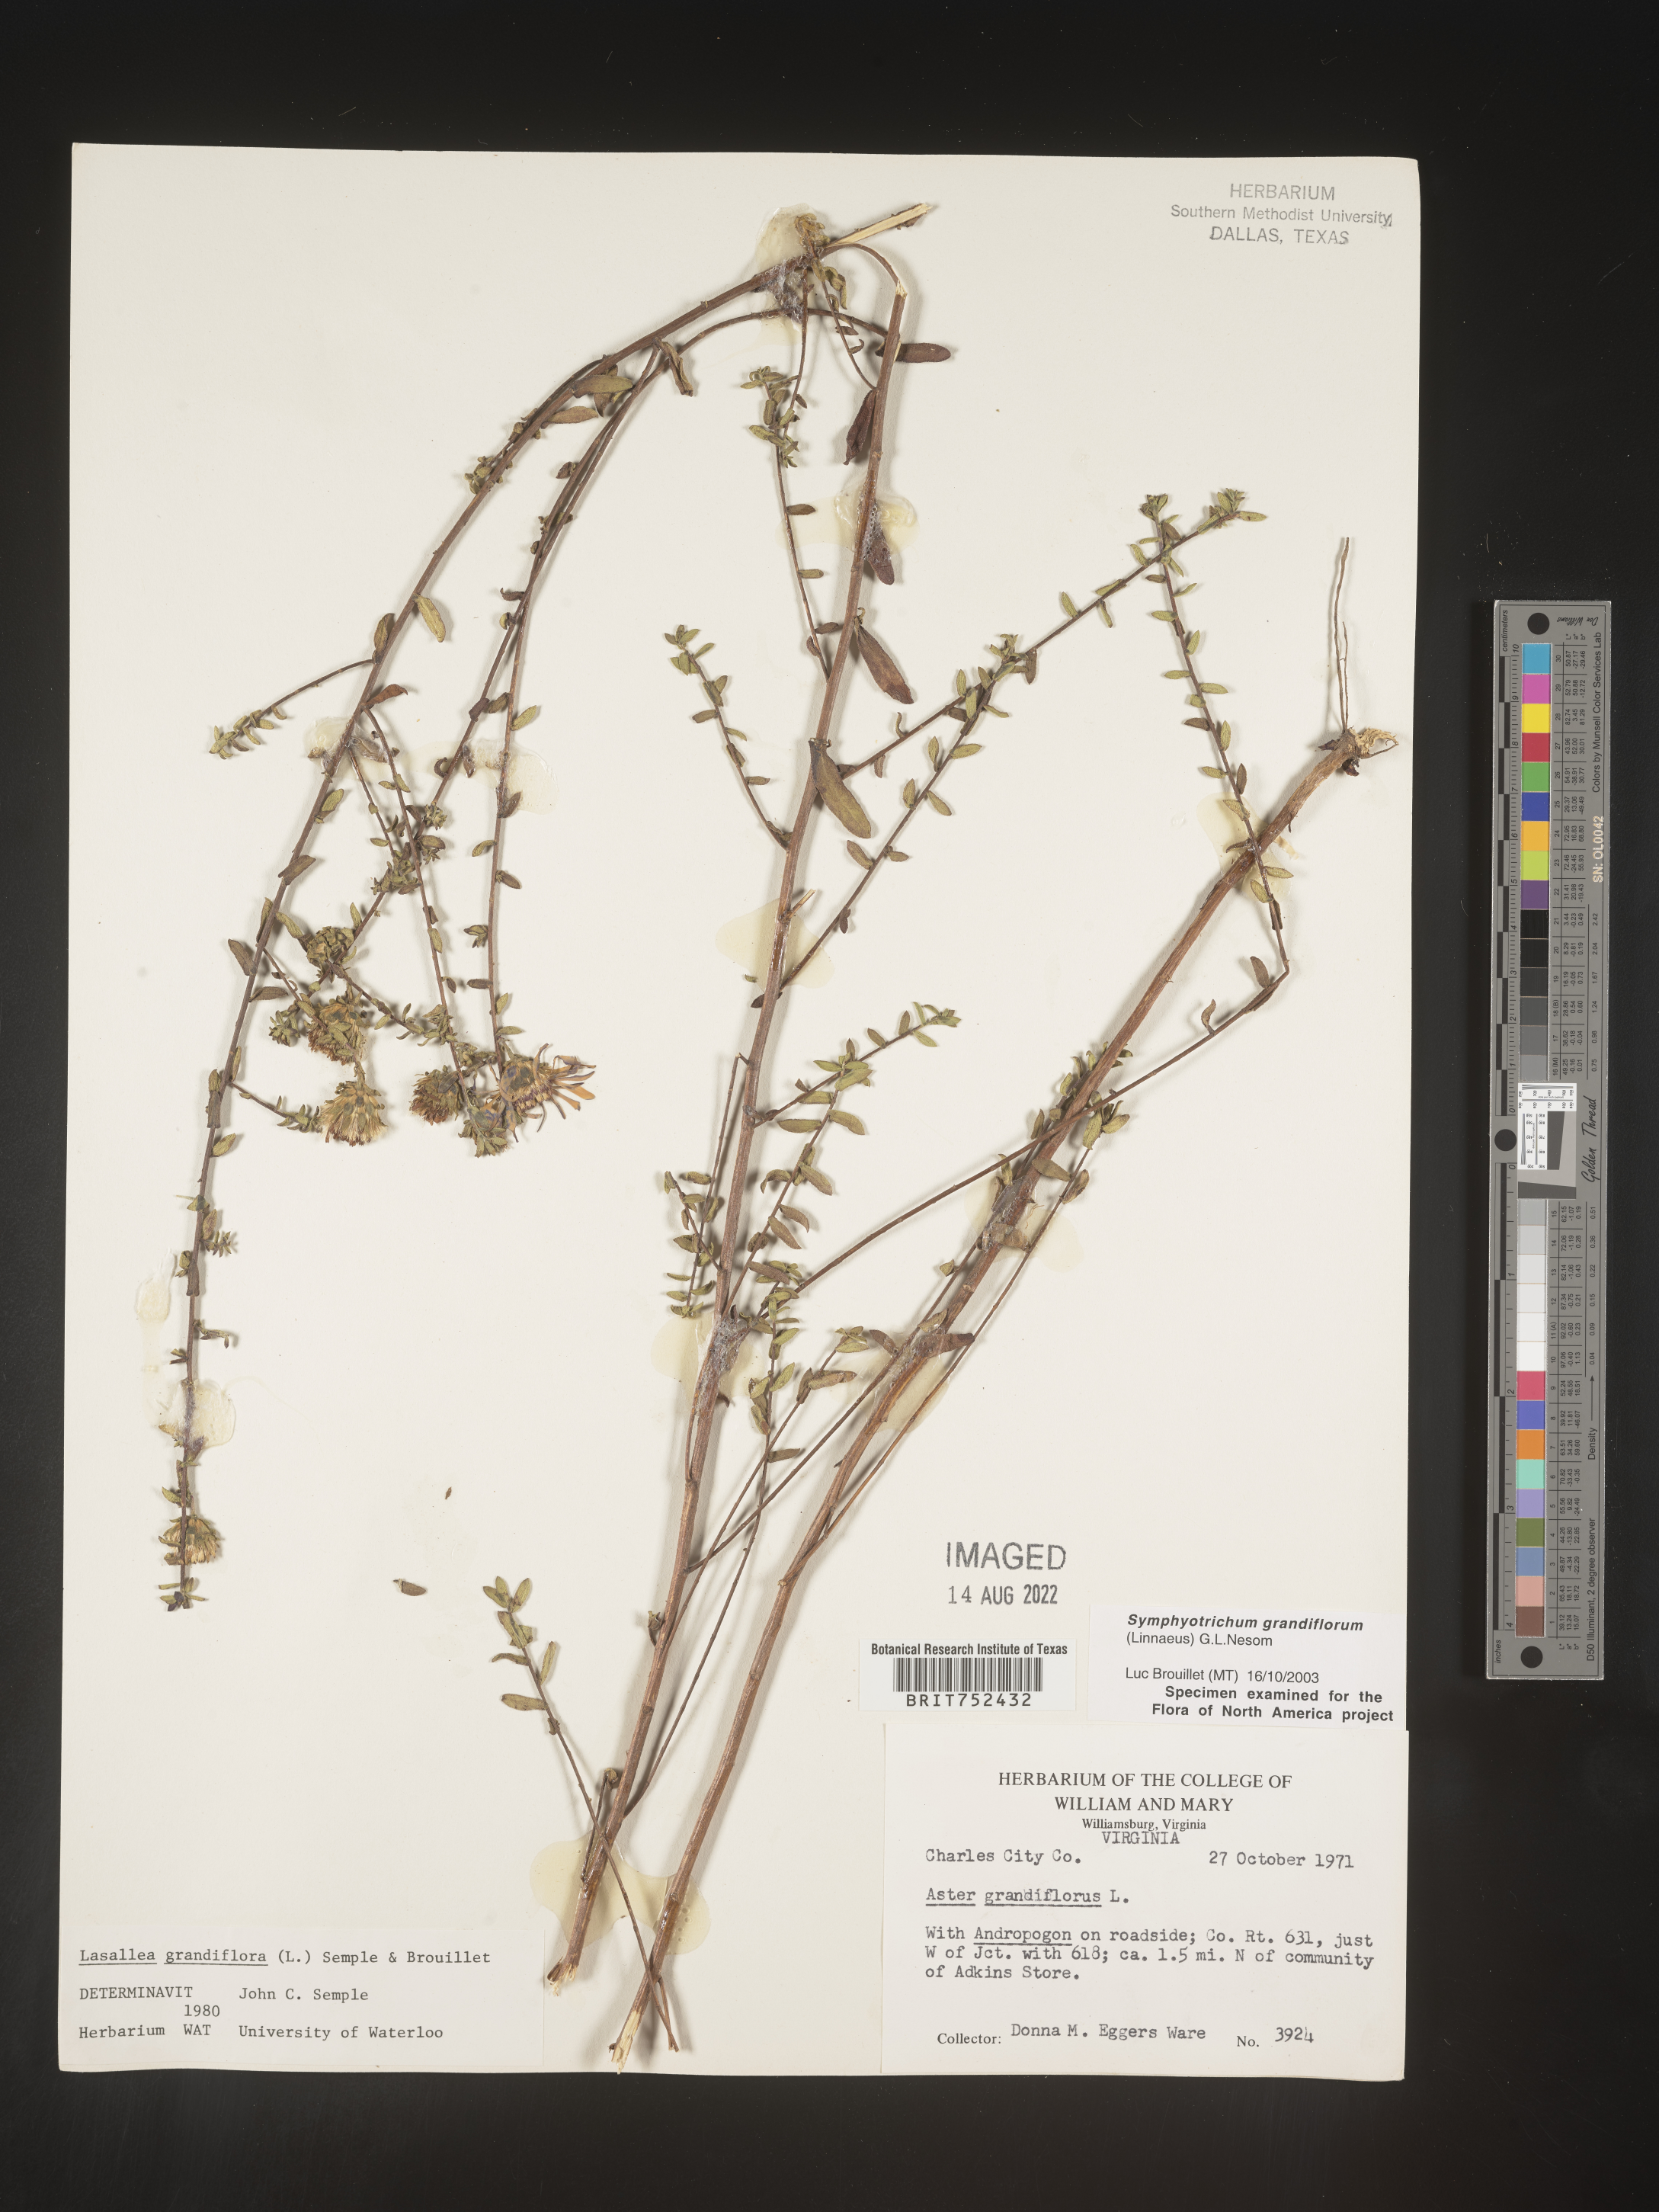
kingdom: Plantae
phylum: Tracheophyta
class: Magnoliopsida
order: Asterales
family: Asteraceae
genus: Symphyotrichum
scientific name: Symphyotrichum grandiflorum
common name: Big-head aster
